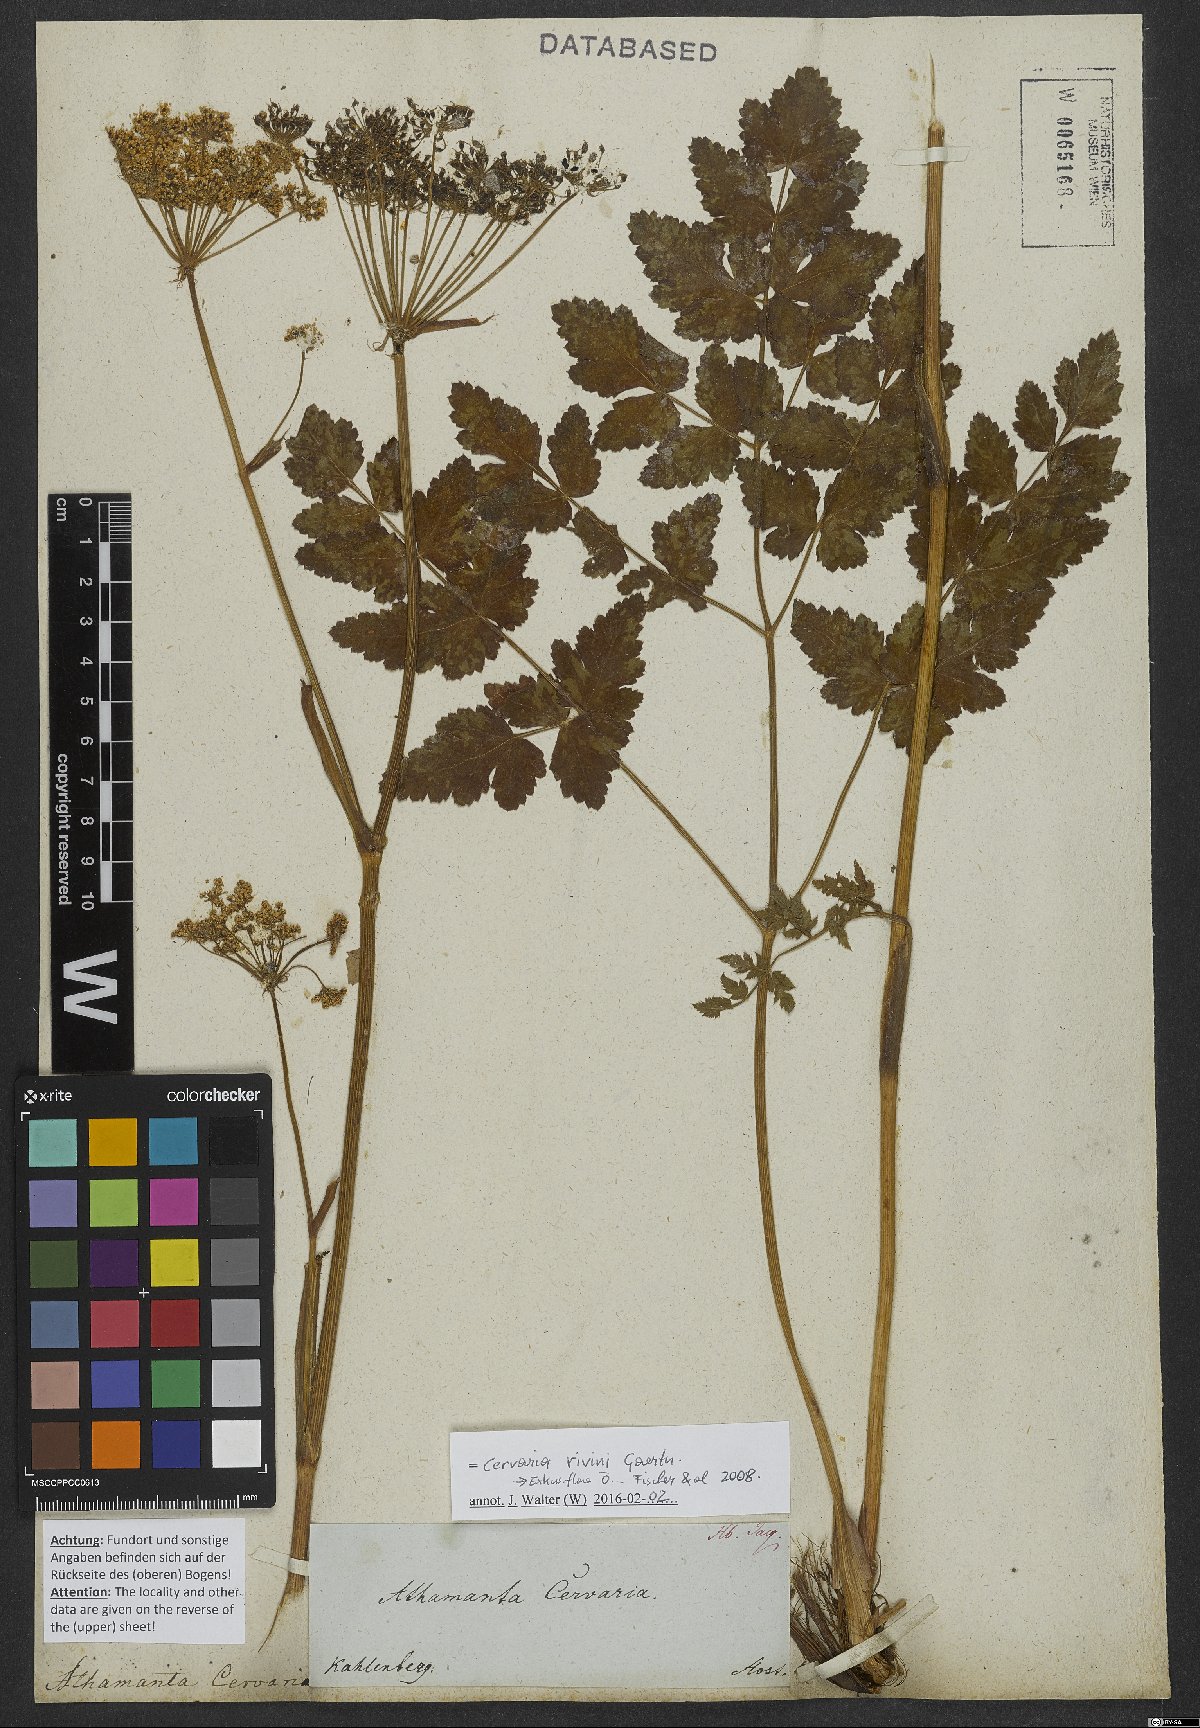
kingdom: Plantae
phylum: Tracheophyta
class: Magnoliopsida
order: Apiales
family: Apiaceae
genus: Cervaria
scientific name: Cervaria rivini
